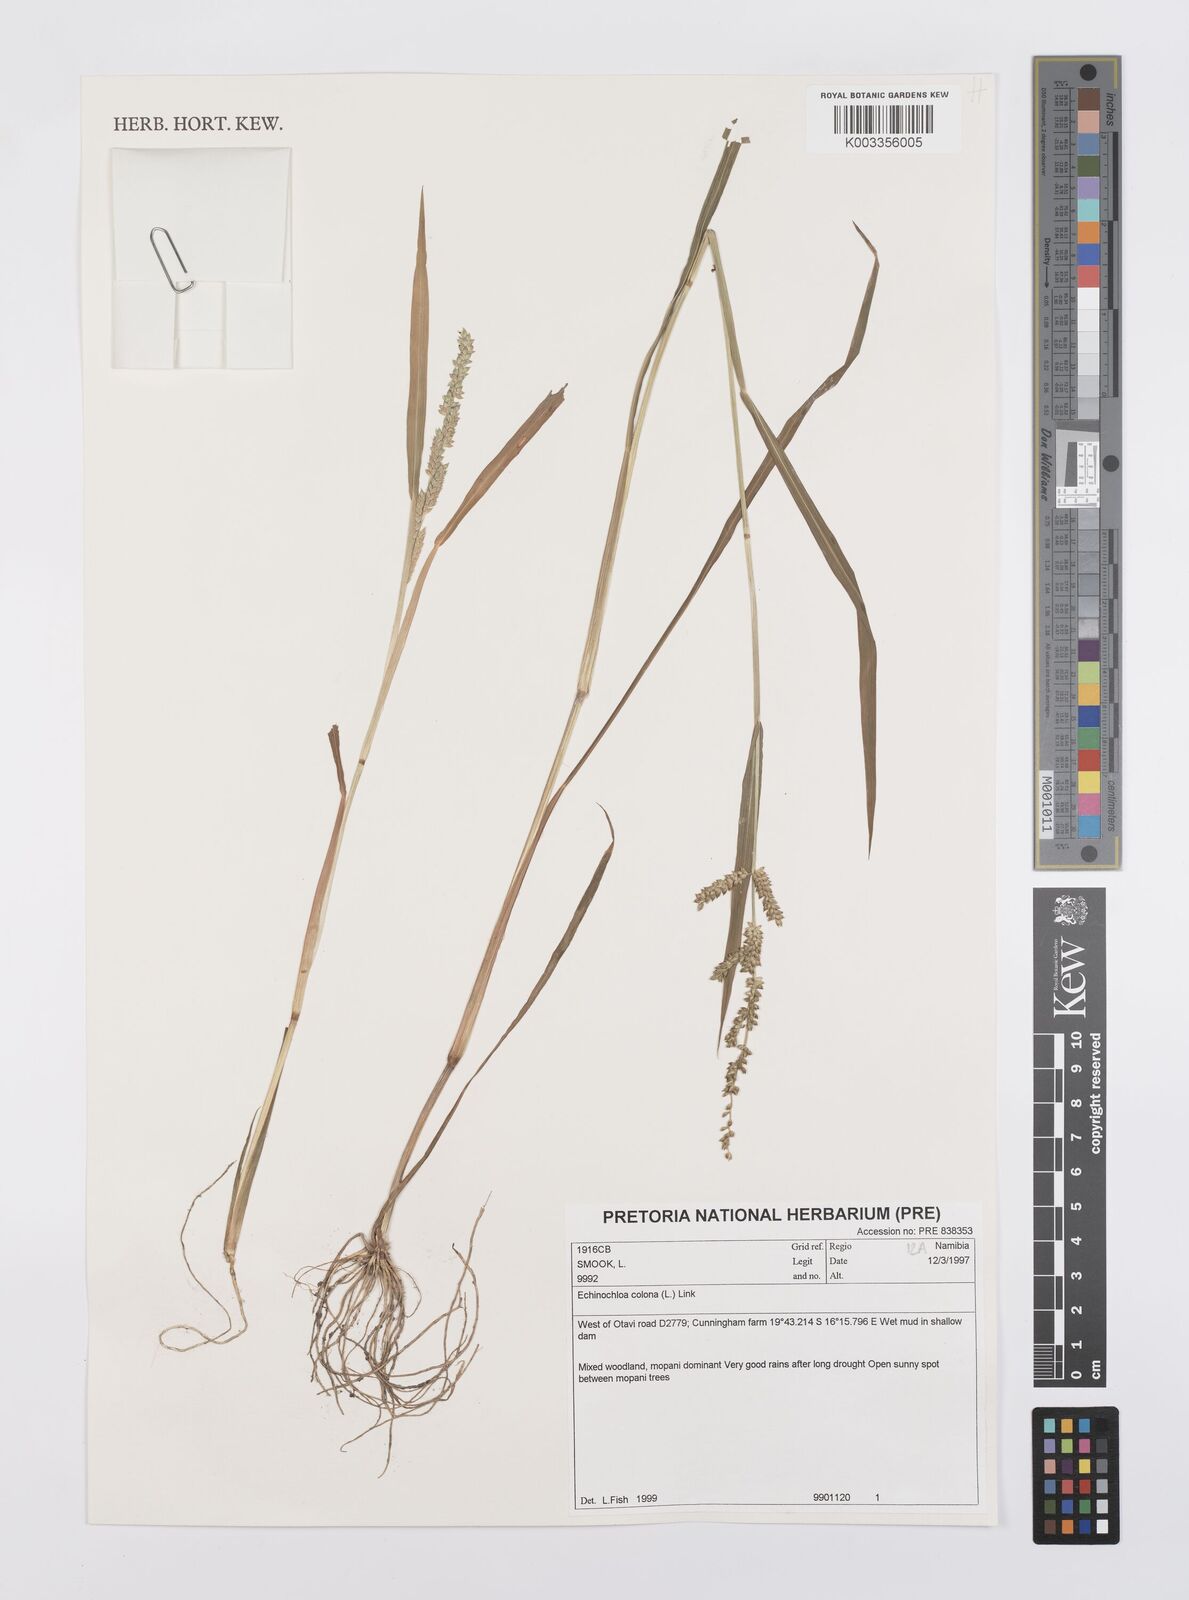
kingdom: Plantae
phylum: Tracheophyta
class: Liliopsida
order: Poales
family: Poaceae
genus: Echinochloa
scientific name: Echinochloa colonum
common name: Jungle rice
